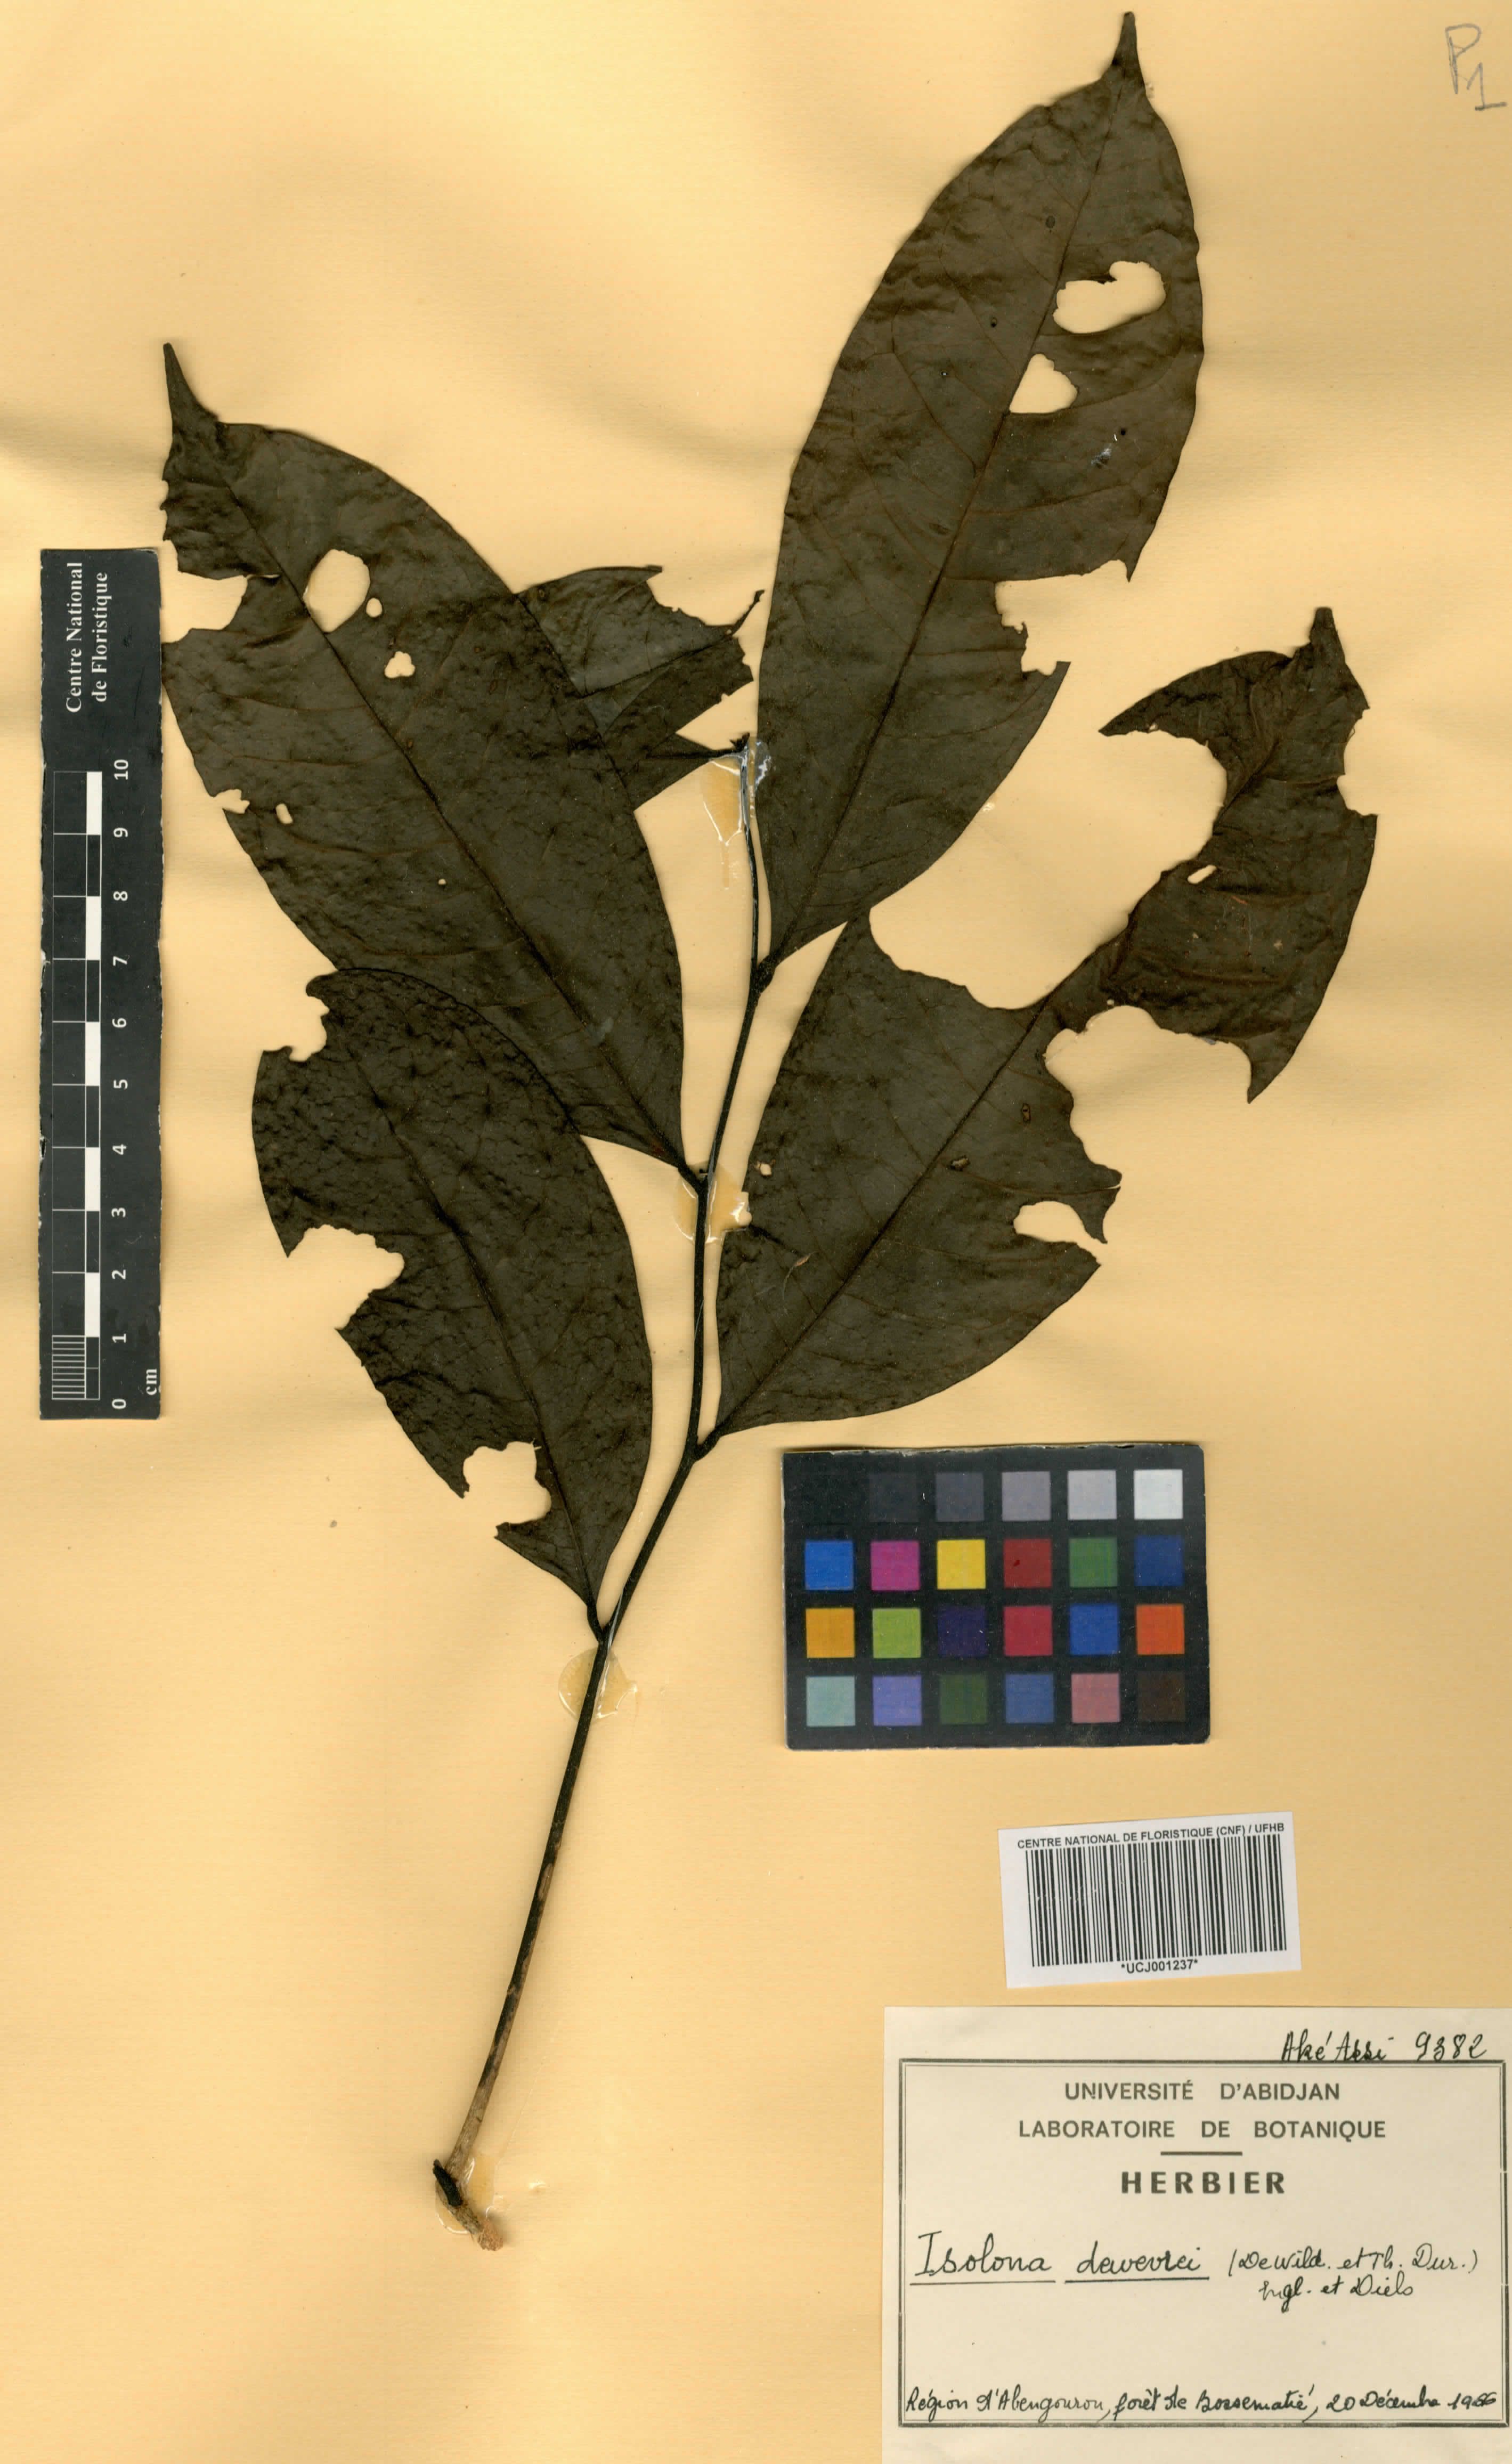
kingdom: Plantae
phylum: Tracheophyta
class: Magnoliopsida
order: Magnoliales
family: Annonaceae
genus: Isolona
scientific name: Isolona dewevrei
